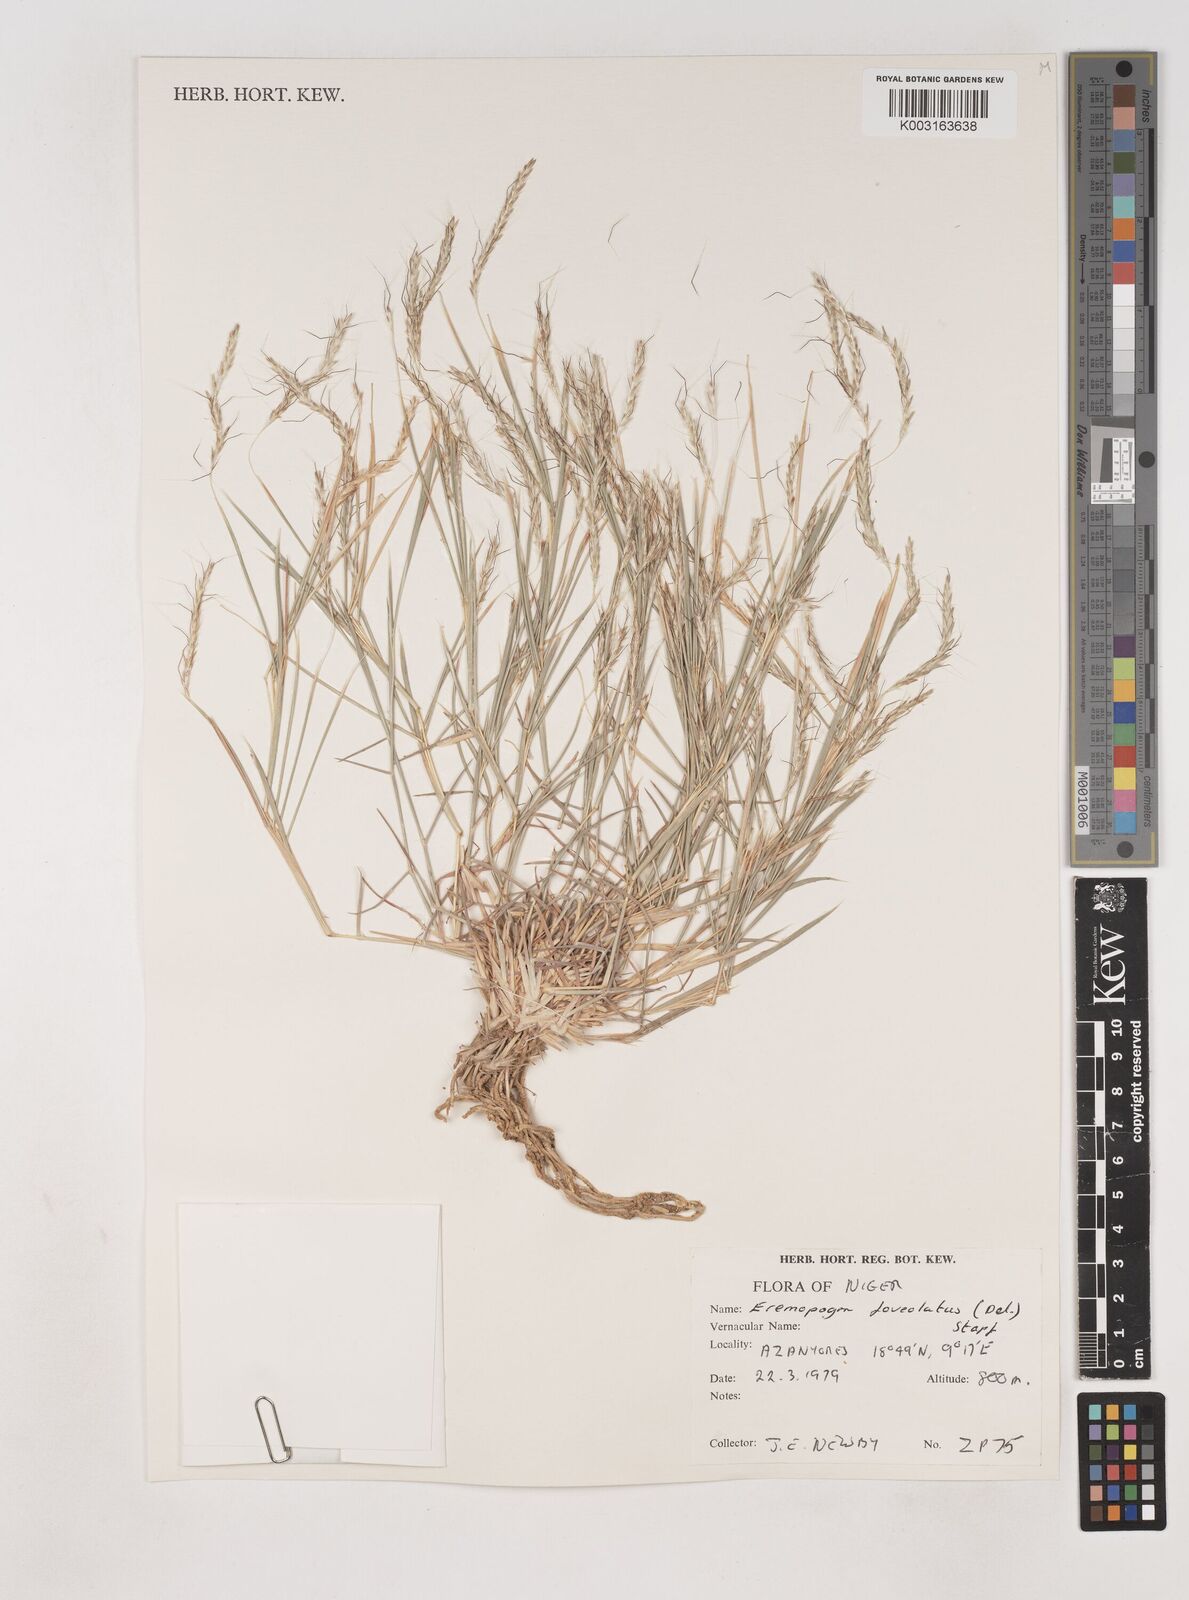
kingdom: Plantae
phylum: Tracheophyta
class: Liliopsida
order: Poales
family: Poaceae
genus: Dichanthium
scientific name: Dichanthium foveolatum
